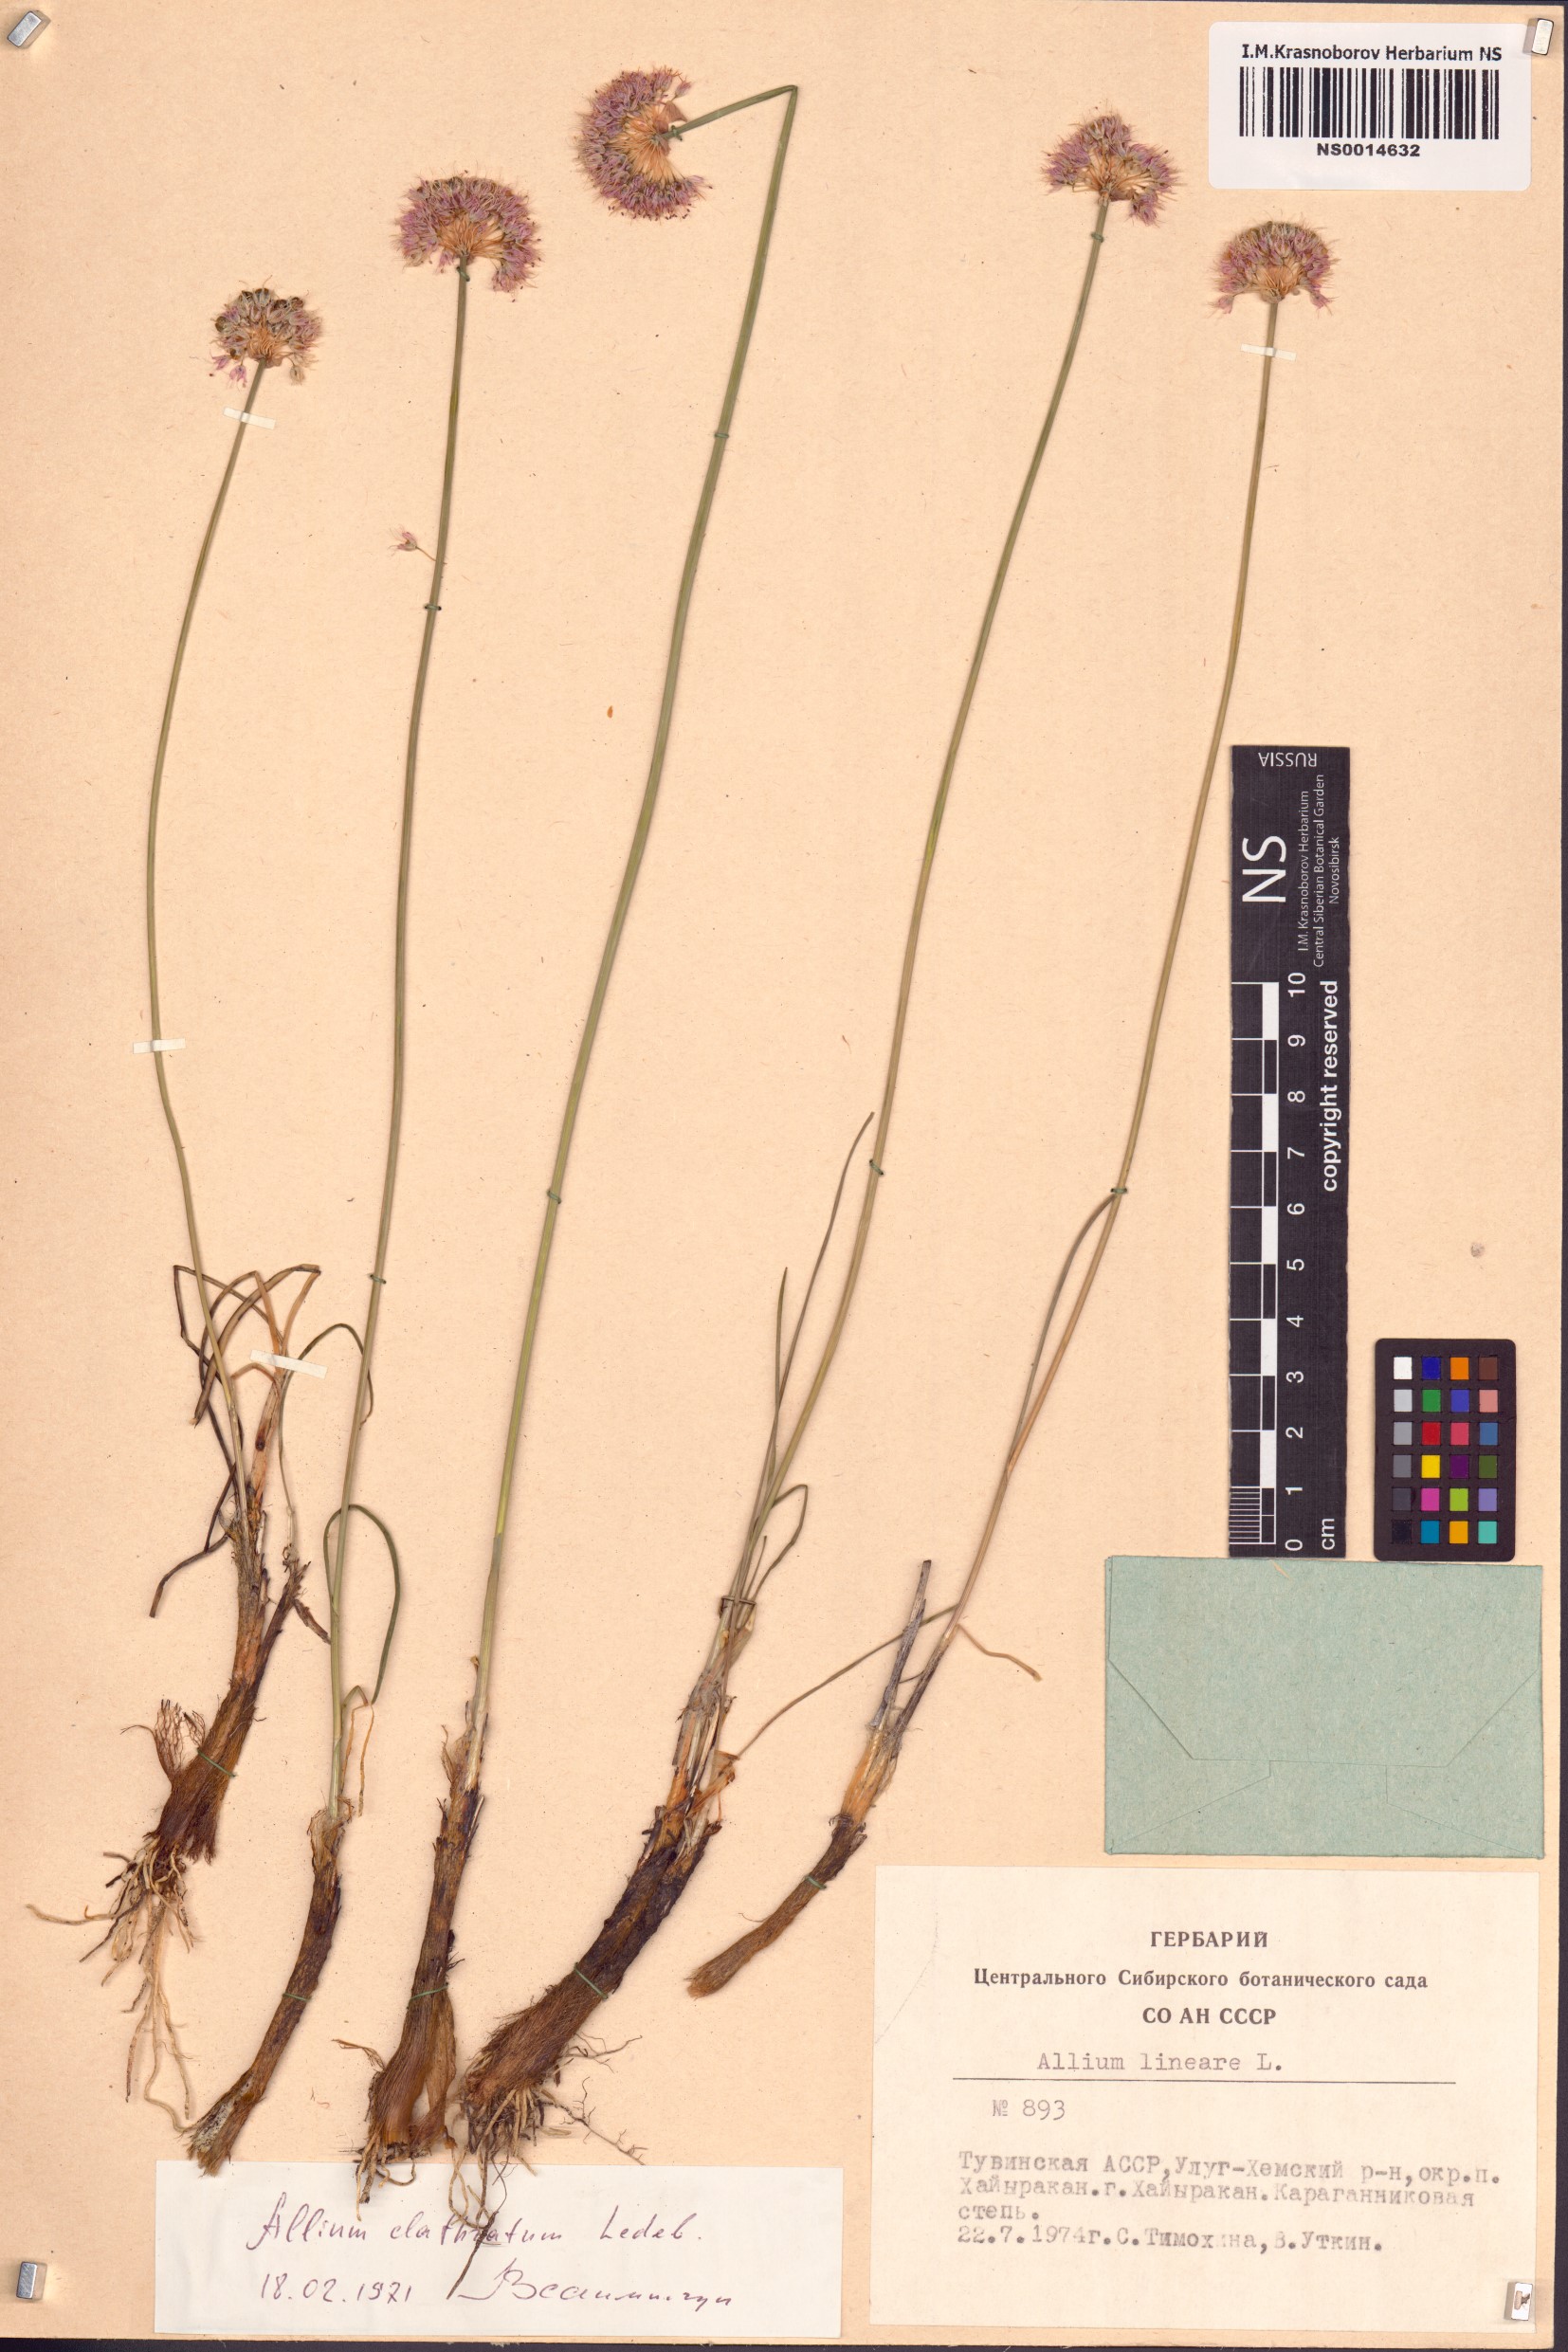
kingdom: Plantae
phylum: Tracheophyta
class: Liliopsida
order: Asparagales
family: Amaryllidaceae
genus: Allium
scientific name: Allium clathratum
